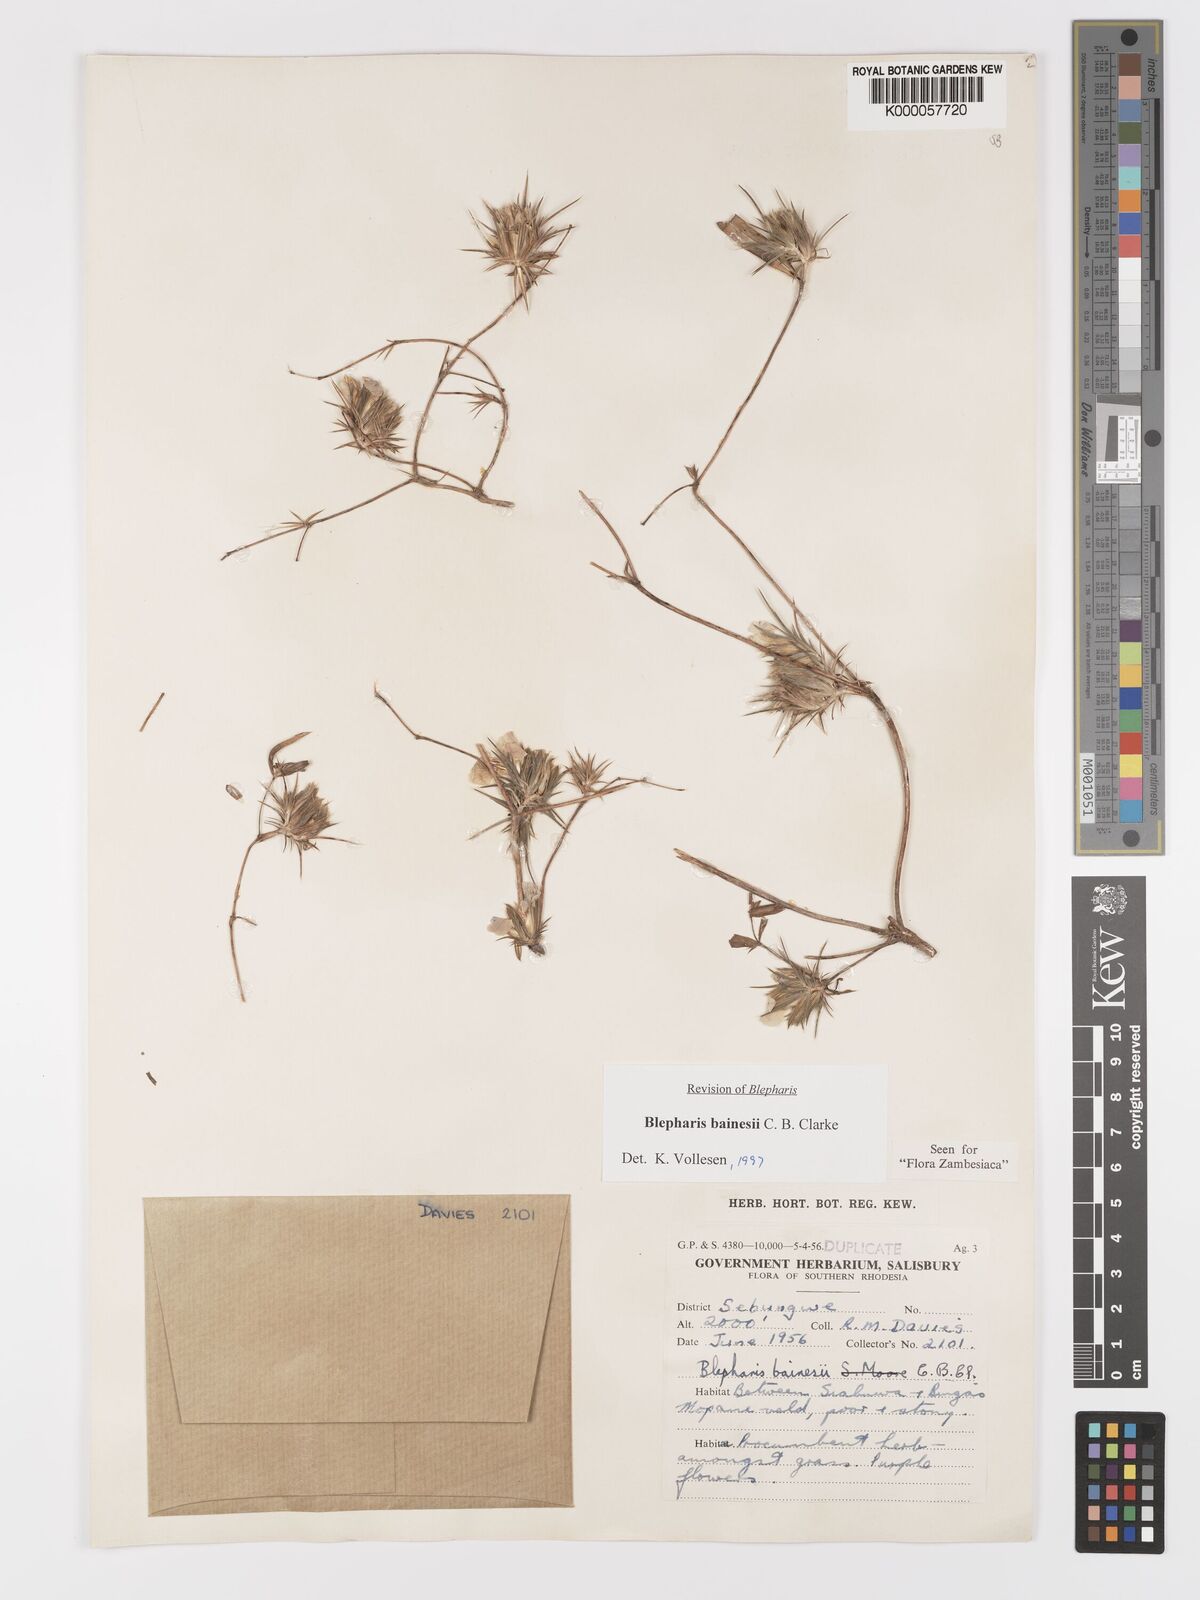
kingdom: Plantae
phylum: Tracheophyta
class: Magnoliopsida
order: Lamiales
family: Acanthaceae
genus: Blepharis
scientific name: Blepharis bainesii
